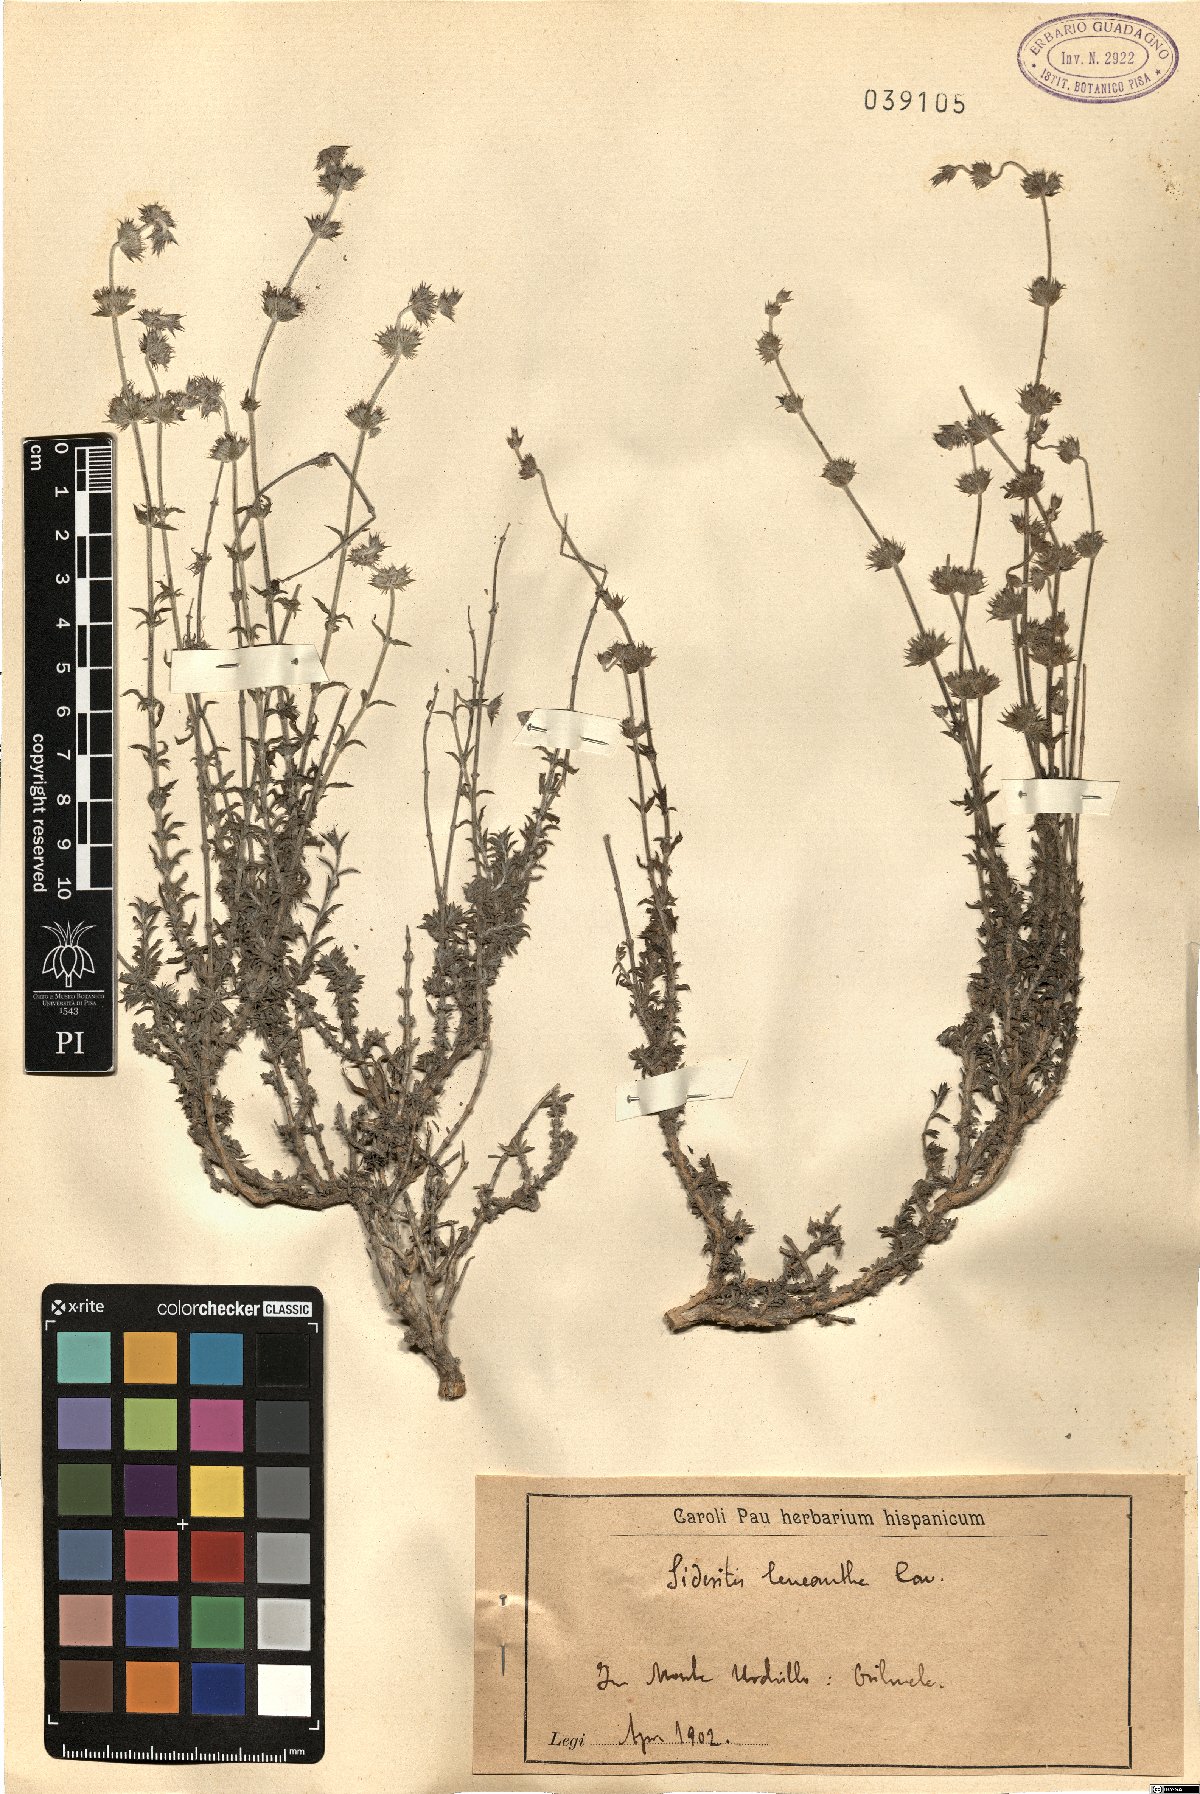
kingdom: Plantae
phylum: Tracheophyta
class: Magnoliopsida
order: Lamiales
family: Lamiaceae
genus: Sideritis
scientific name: Sideritis leucantha
